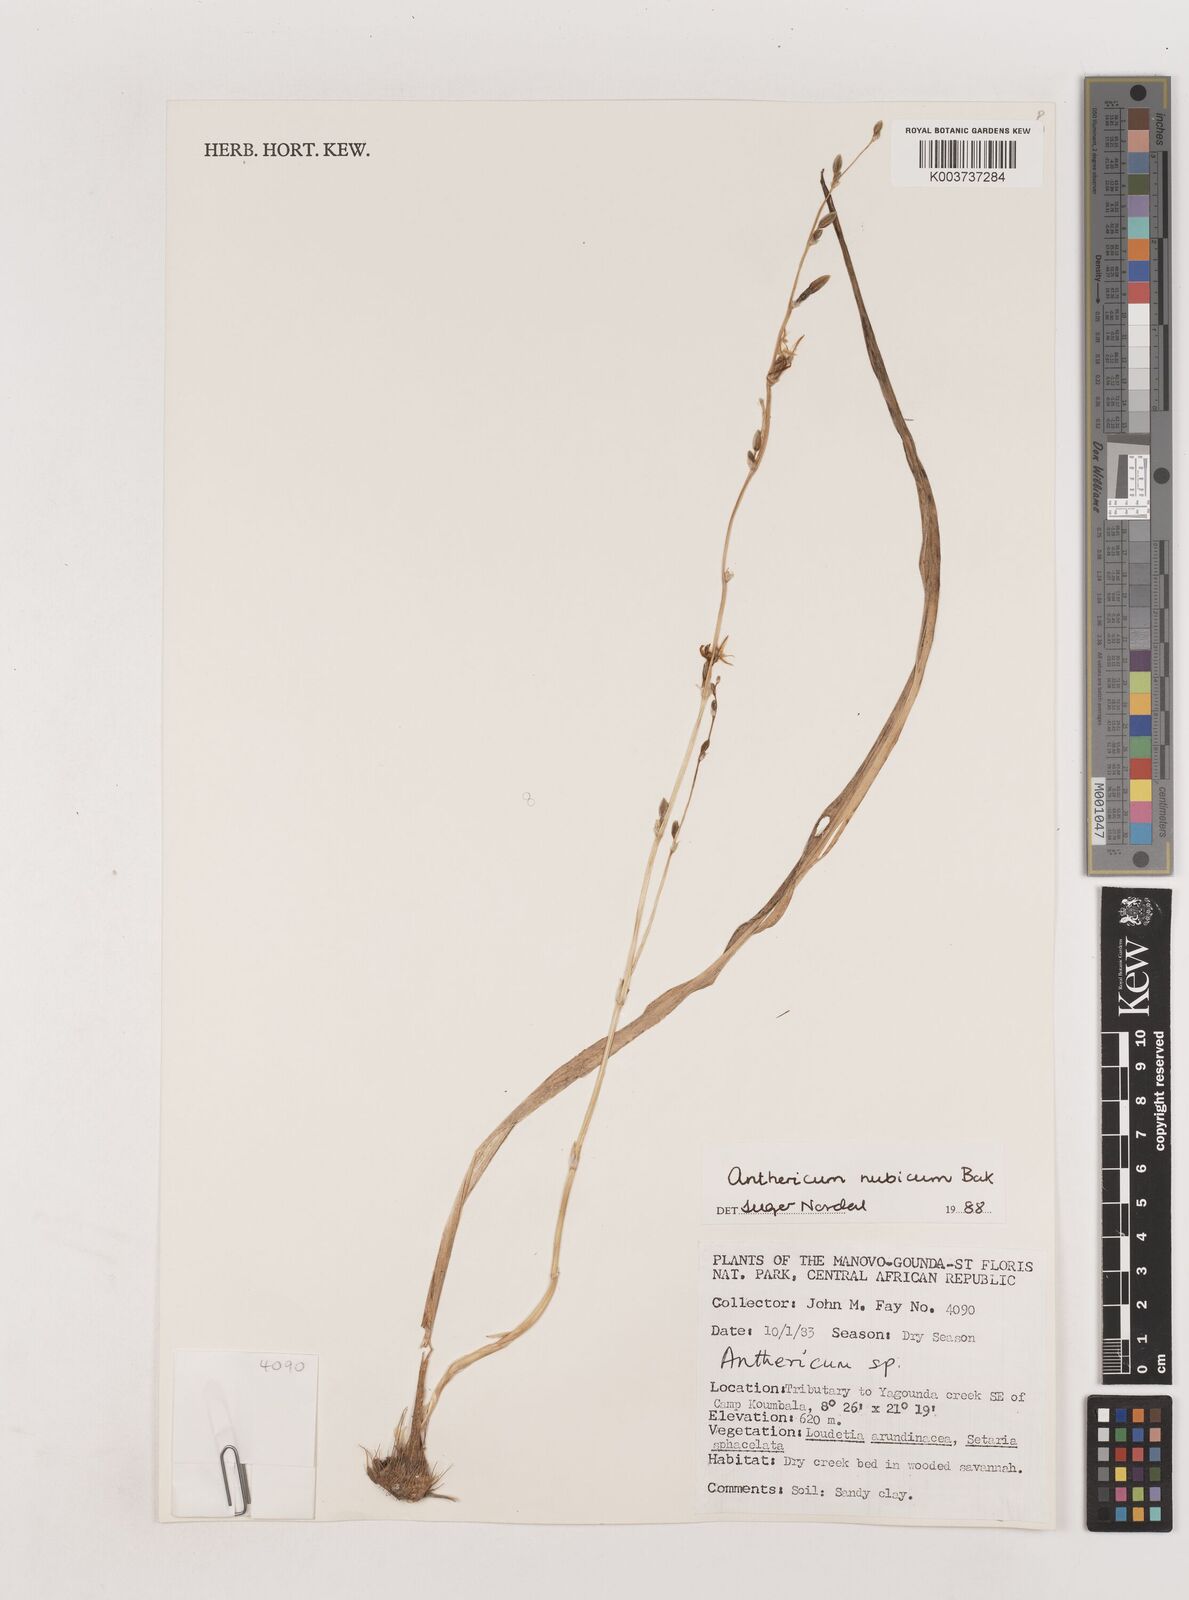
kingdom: Plantae
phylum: Tracheophyta
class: Liliopsida
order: Asparagales
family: Asparagaceae
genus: Chlorophytum
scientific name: Chlorophytum nubicum
